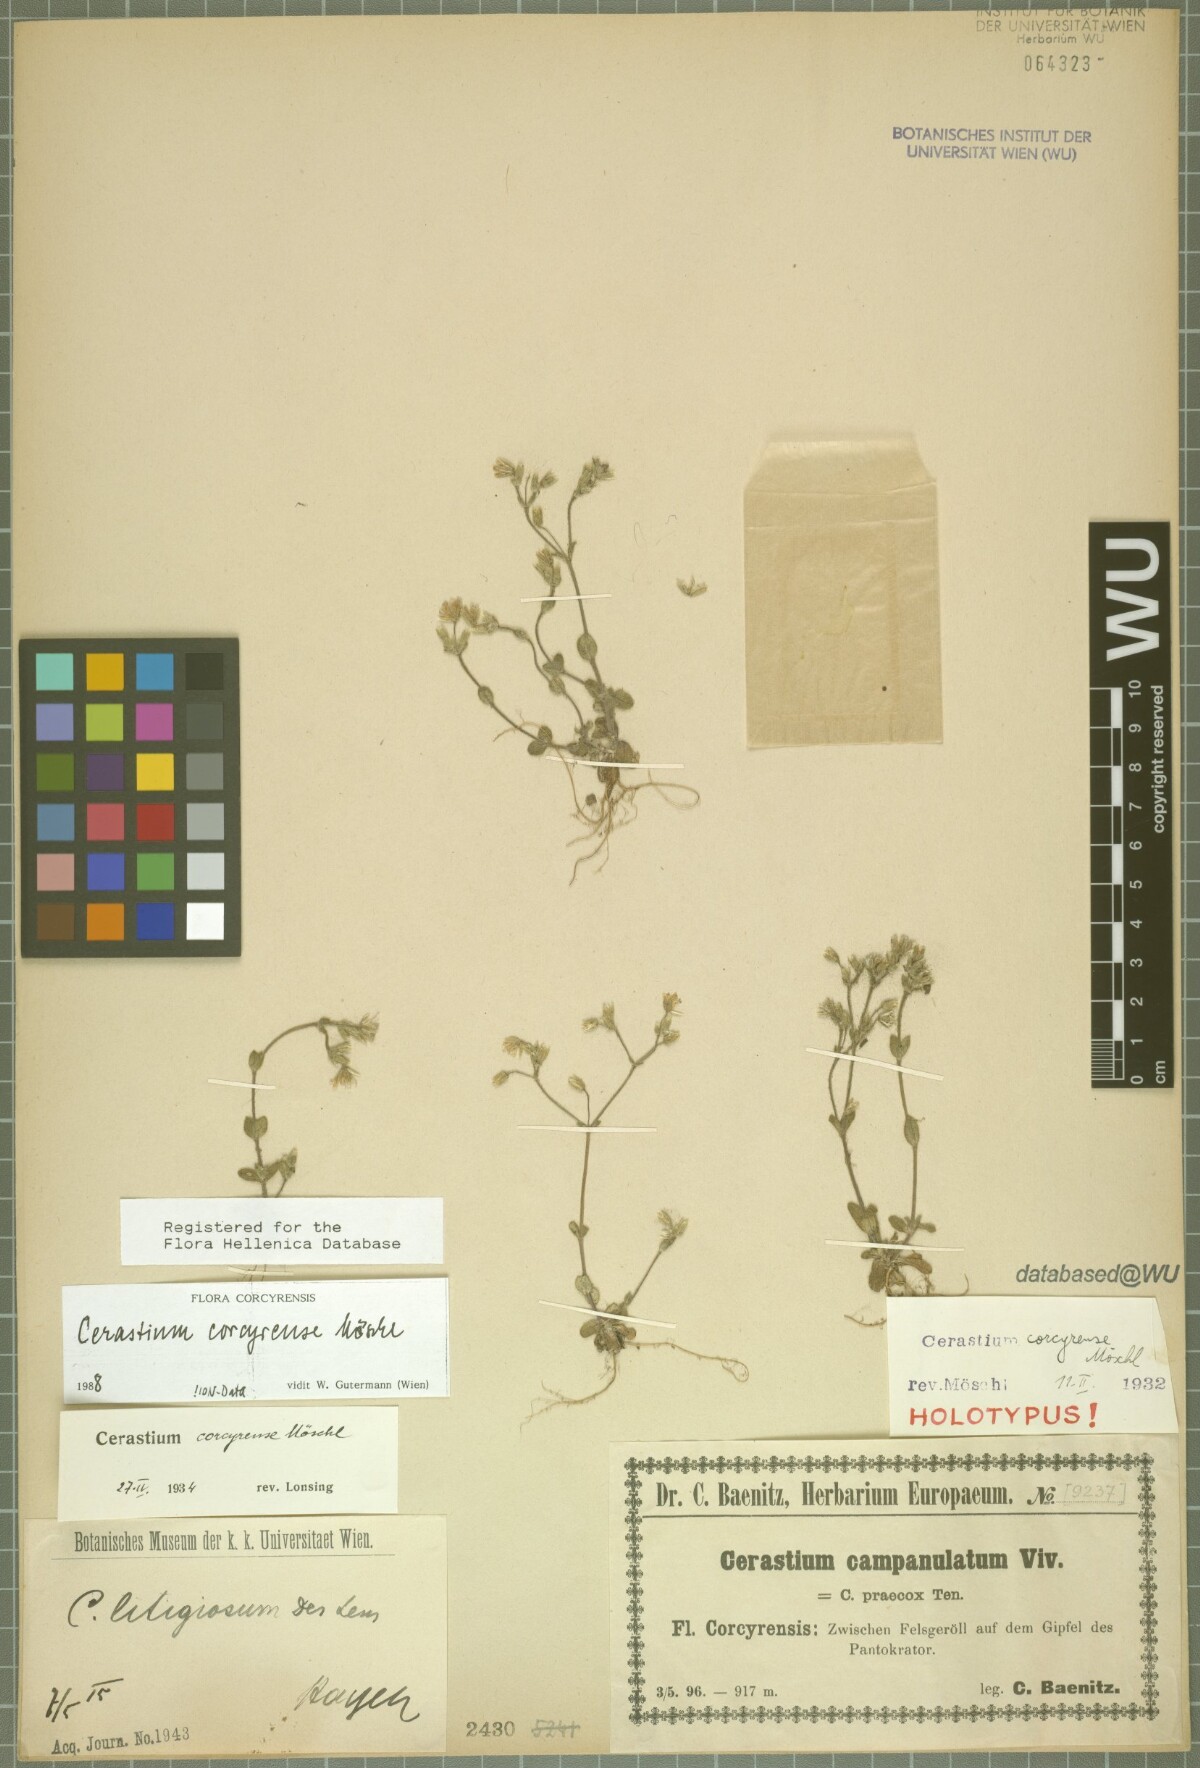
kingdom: Plantae
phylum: Tracheophyta
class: Magnoliopsida
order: Caryophyllales
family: Caryophyllaceae
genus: Cerastium
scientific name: Cerastium brachypetalum
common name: Grey mouse-ear
